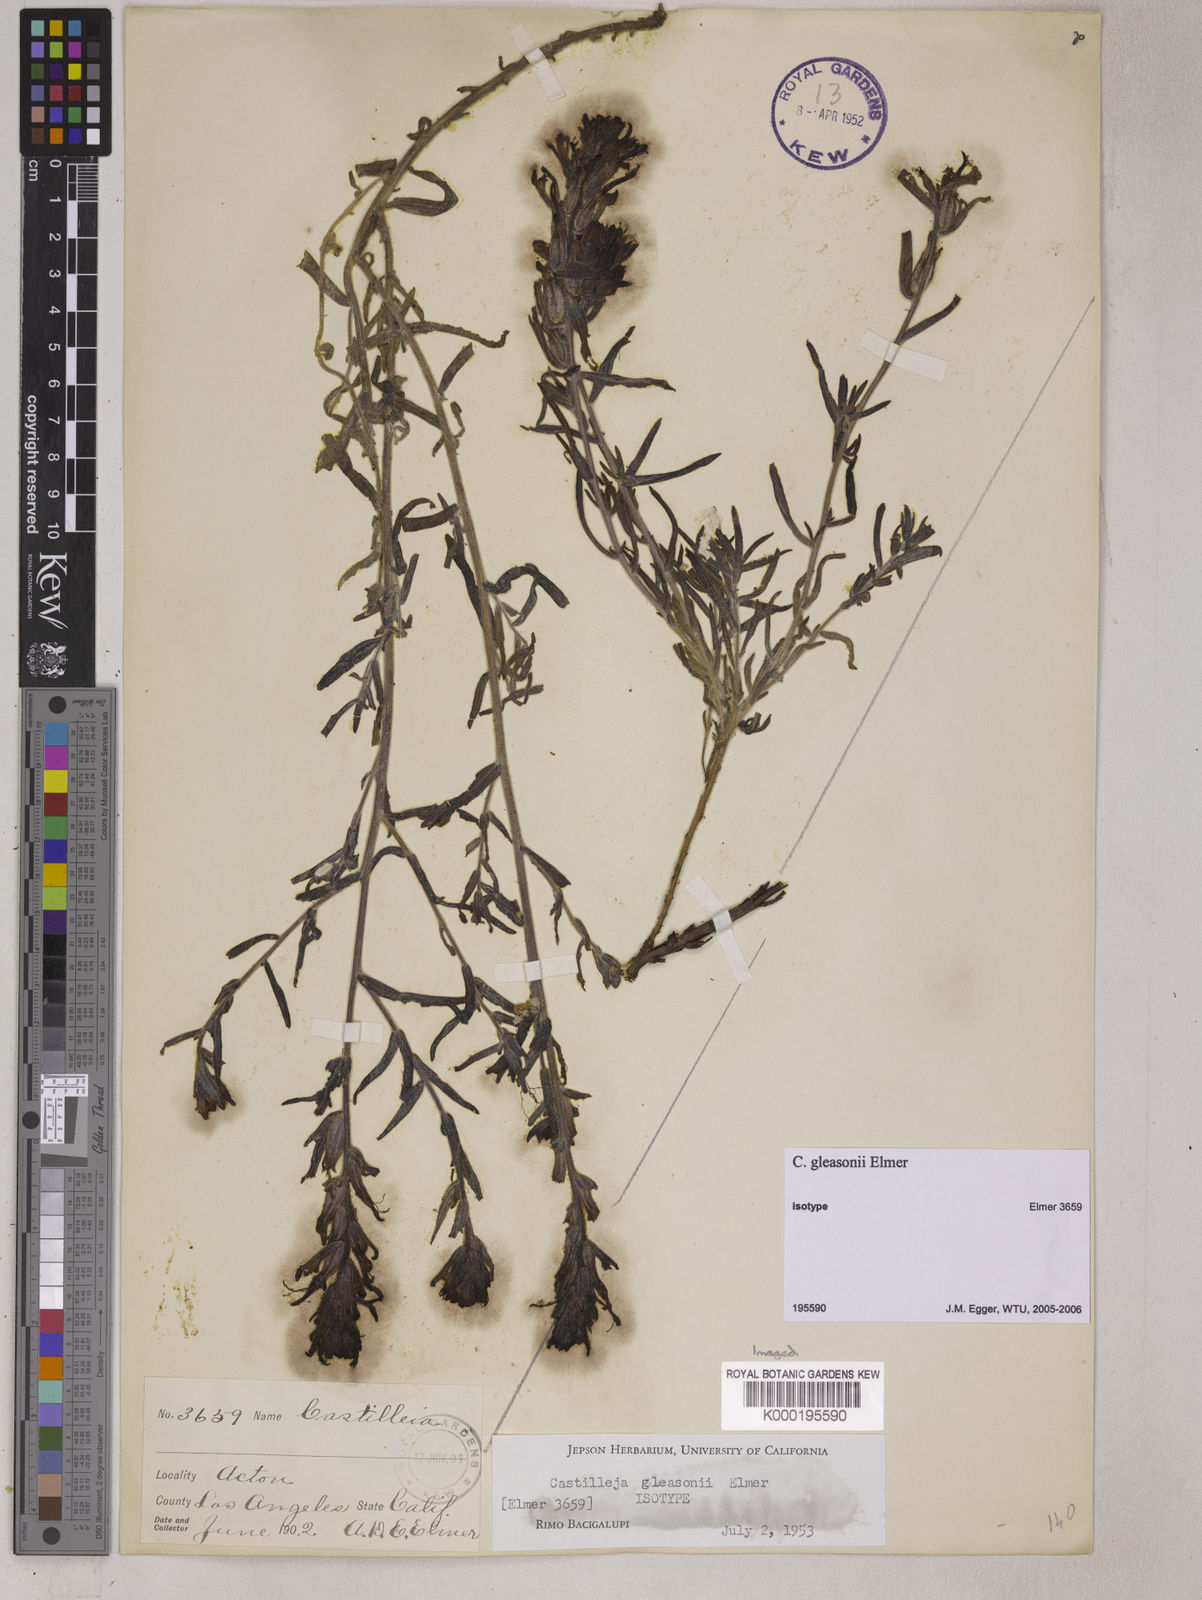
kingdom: Plantae
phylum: Tracheophyta
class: Magnoliopsida
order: Lamiales
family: Orobanchaceae
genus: Castilleja
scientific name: Castilleja gleasoni
